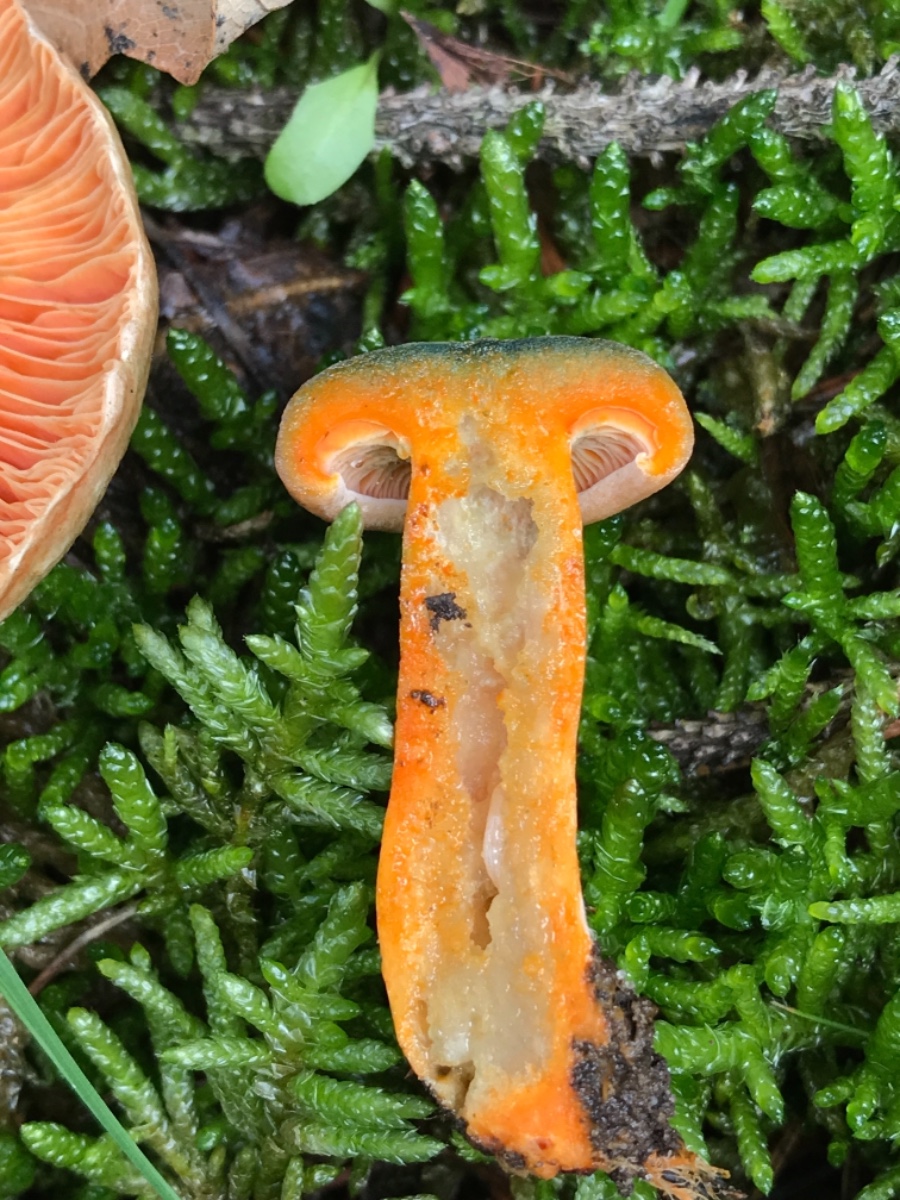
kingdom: Fungi
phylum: Basidiomycota
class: Agaricomycetes
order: Russulales
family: Russulaceae
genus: Lactarius
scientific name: Lactarius deterrimus
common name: gran-mælkehat
